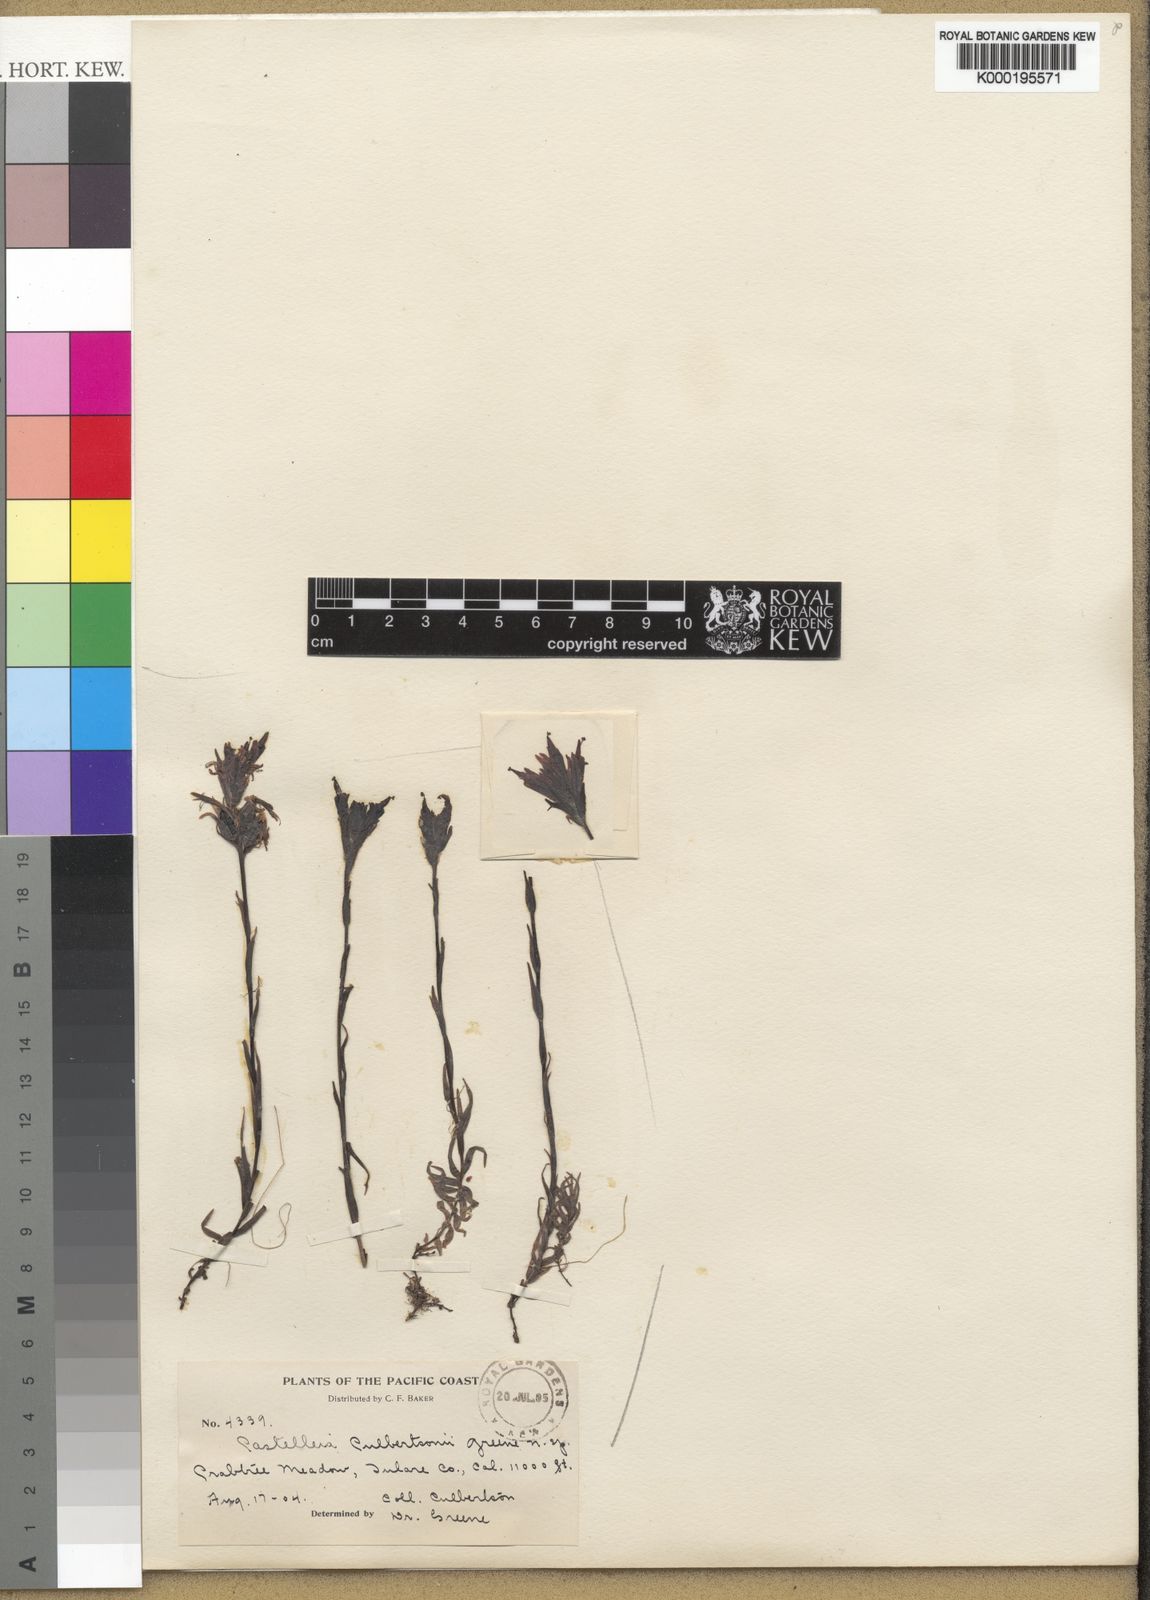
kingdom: Plantae
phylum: Tracheophyta
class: Magnoliopsida
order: Lamiales
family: Orobanchaceae
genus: Castilleja
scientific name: Castilleja lemmonii
